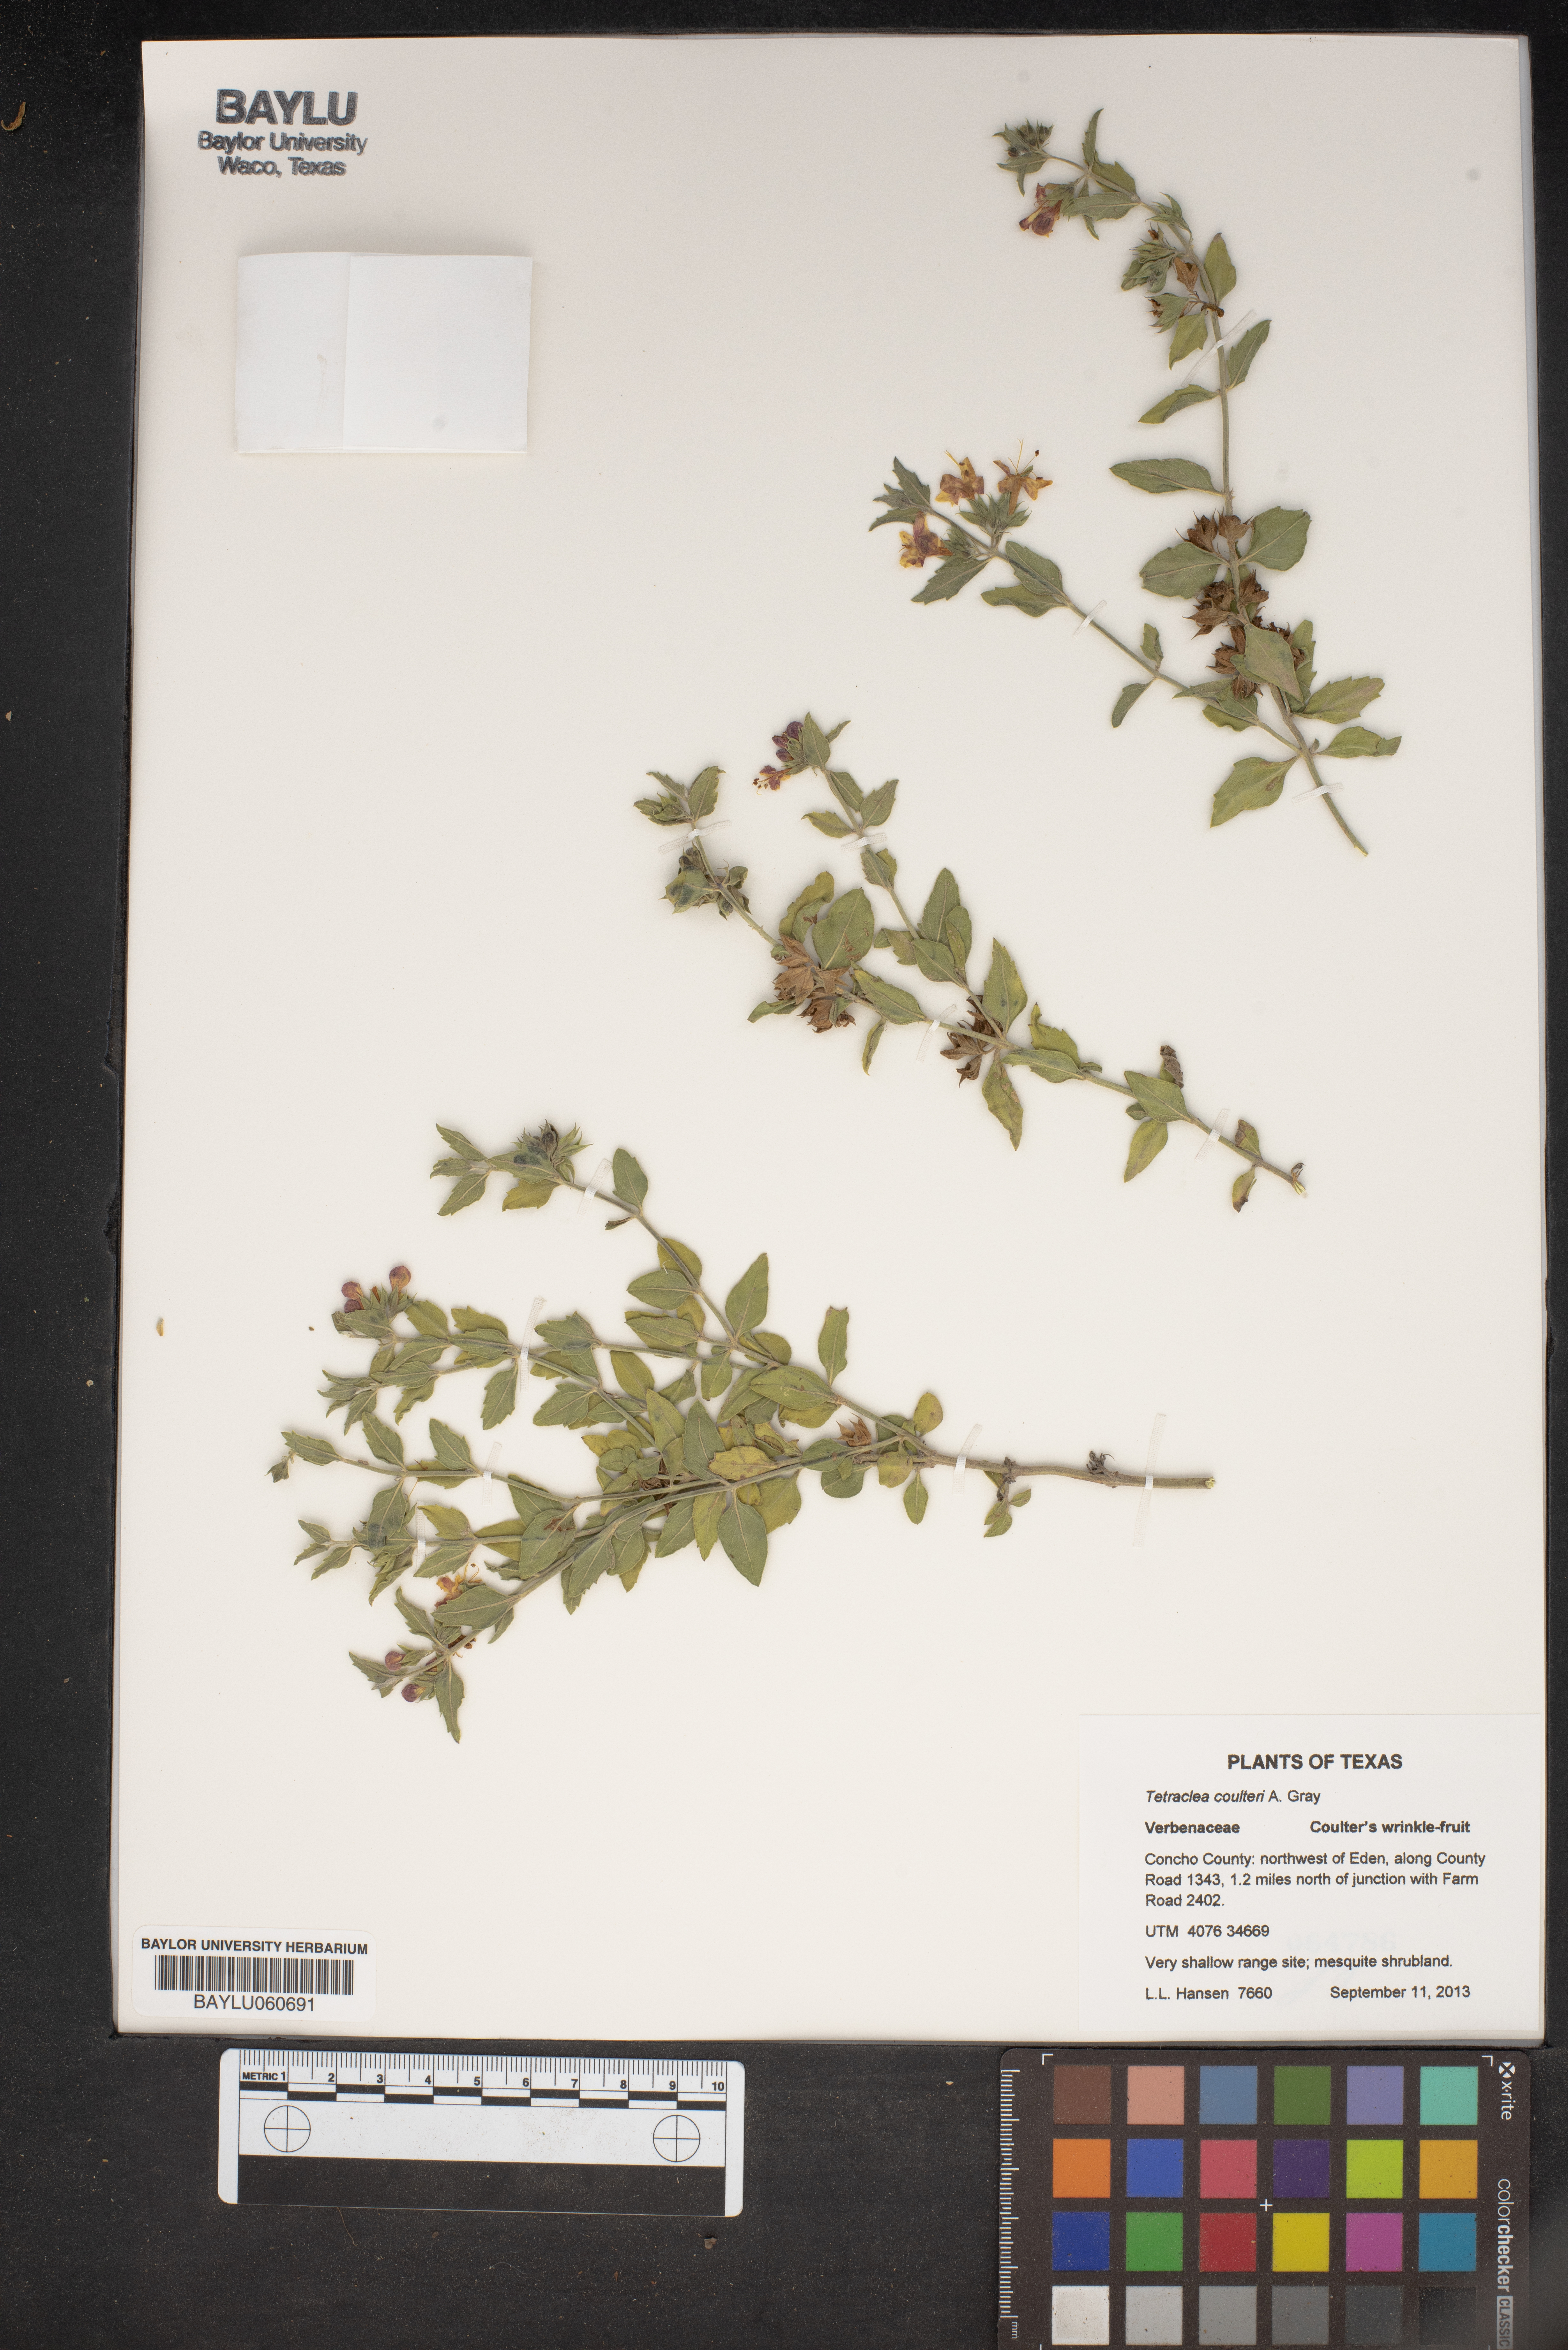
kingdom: Plantae
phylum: Tracheophyta
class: Magnoliopsida
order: Lamiales
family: Lamiaceae
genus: Tetraclea
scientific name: Tetraclea coulteri
